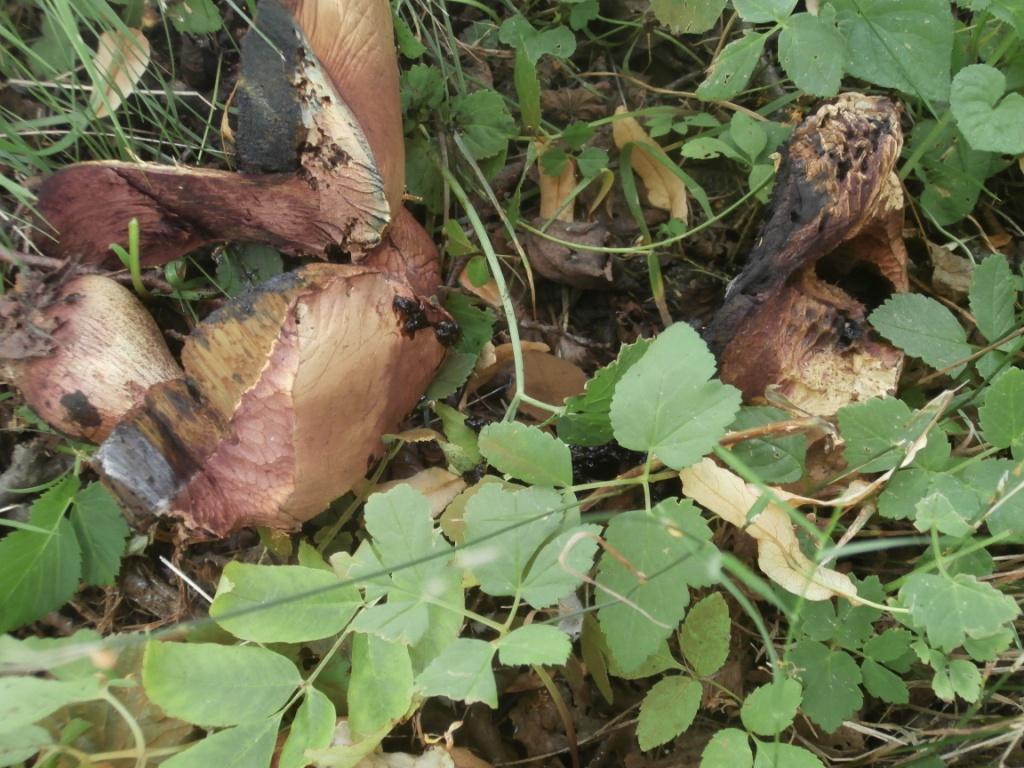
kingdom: Fungi
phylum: Basidiomycota
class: Agaricomycetes
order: Boletales
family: Boletaceae
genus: Suillellus
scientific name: Suillellus luridus
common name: netstokket indigorørhat
